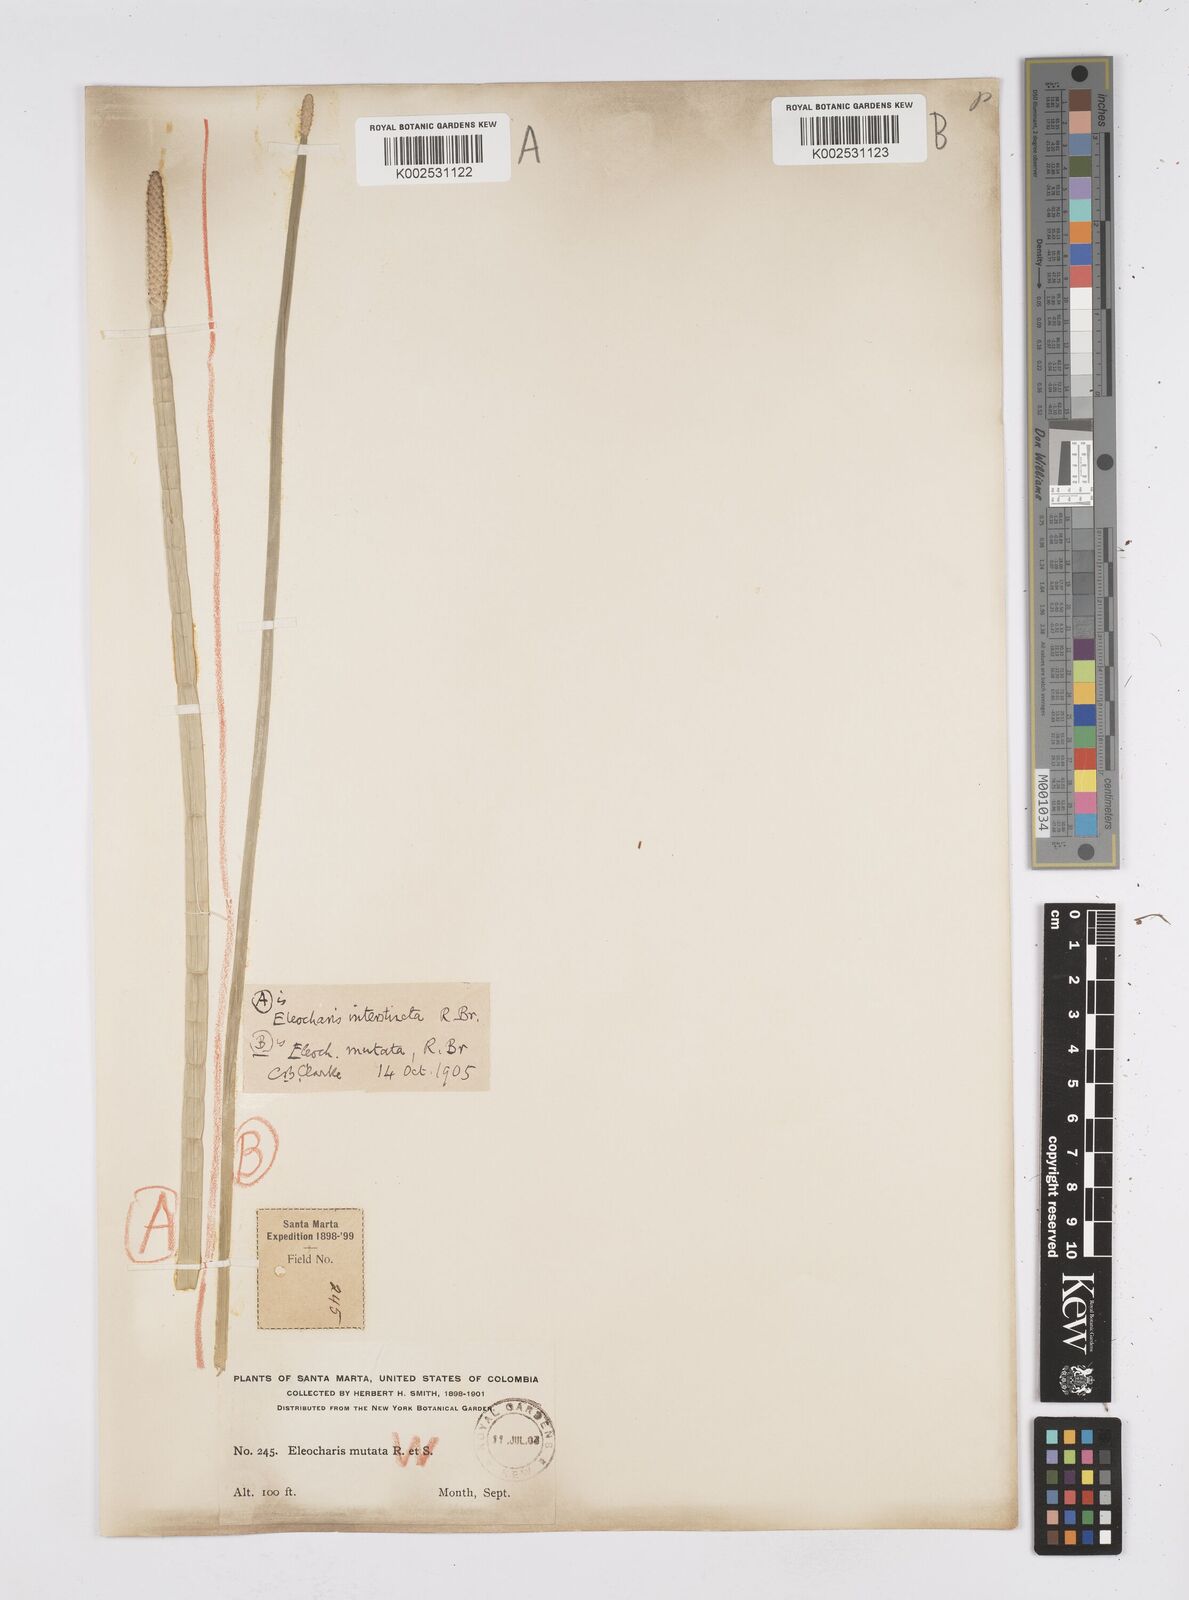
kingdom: Plantae
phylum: Tracheophyta
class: Liliopsida
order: Poales
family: Cyperaceae
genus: Eleocharis
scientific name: Eleocharis interstincta
